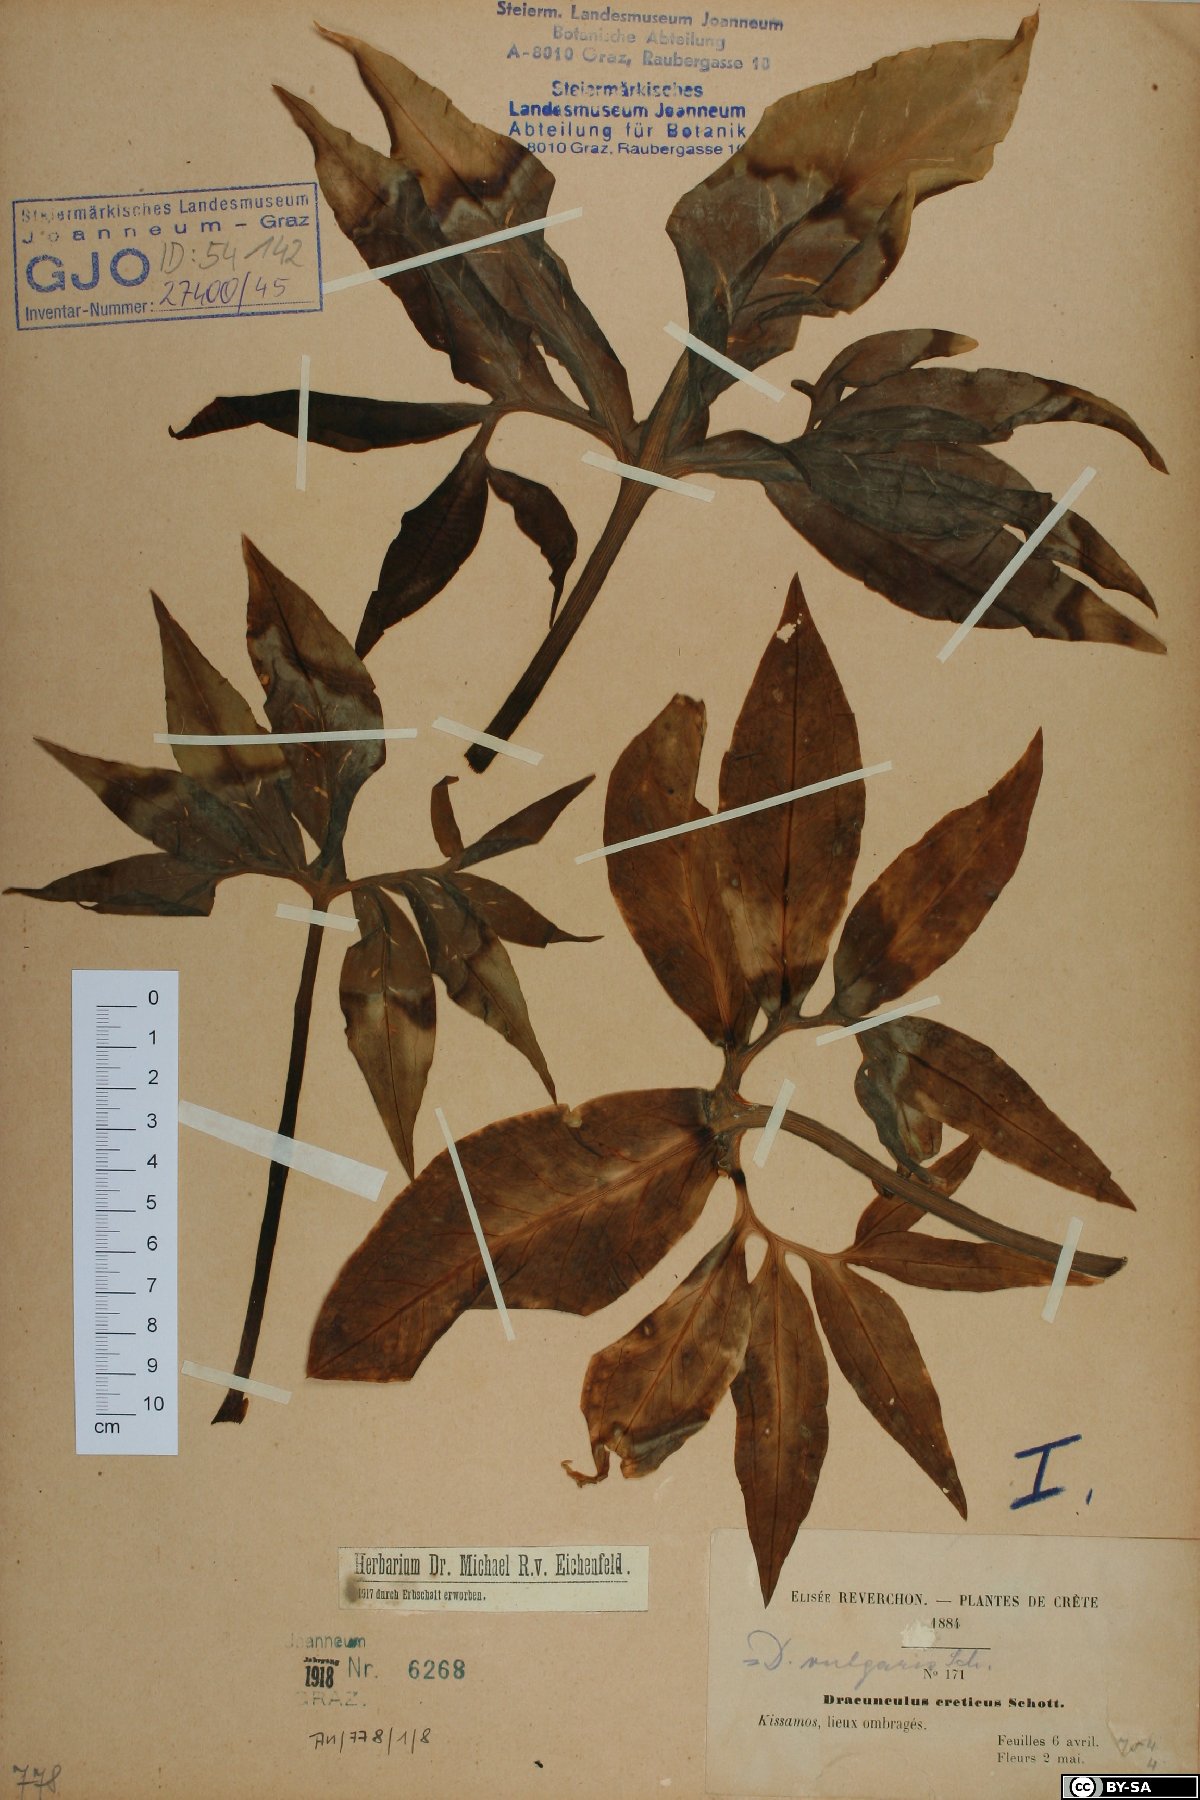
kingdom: Plantae
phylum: Tracheophyta
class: Liliopsida
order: Alismatales
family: Araceae
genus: Dracunculus
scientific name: Dracunculus vulgaris
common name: Dragon arum
